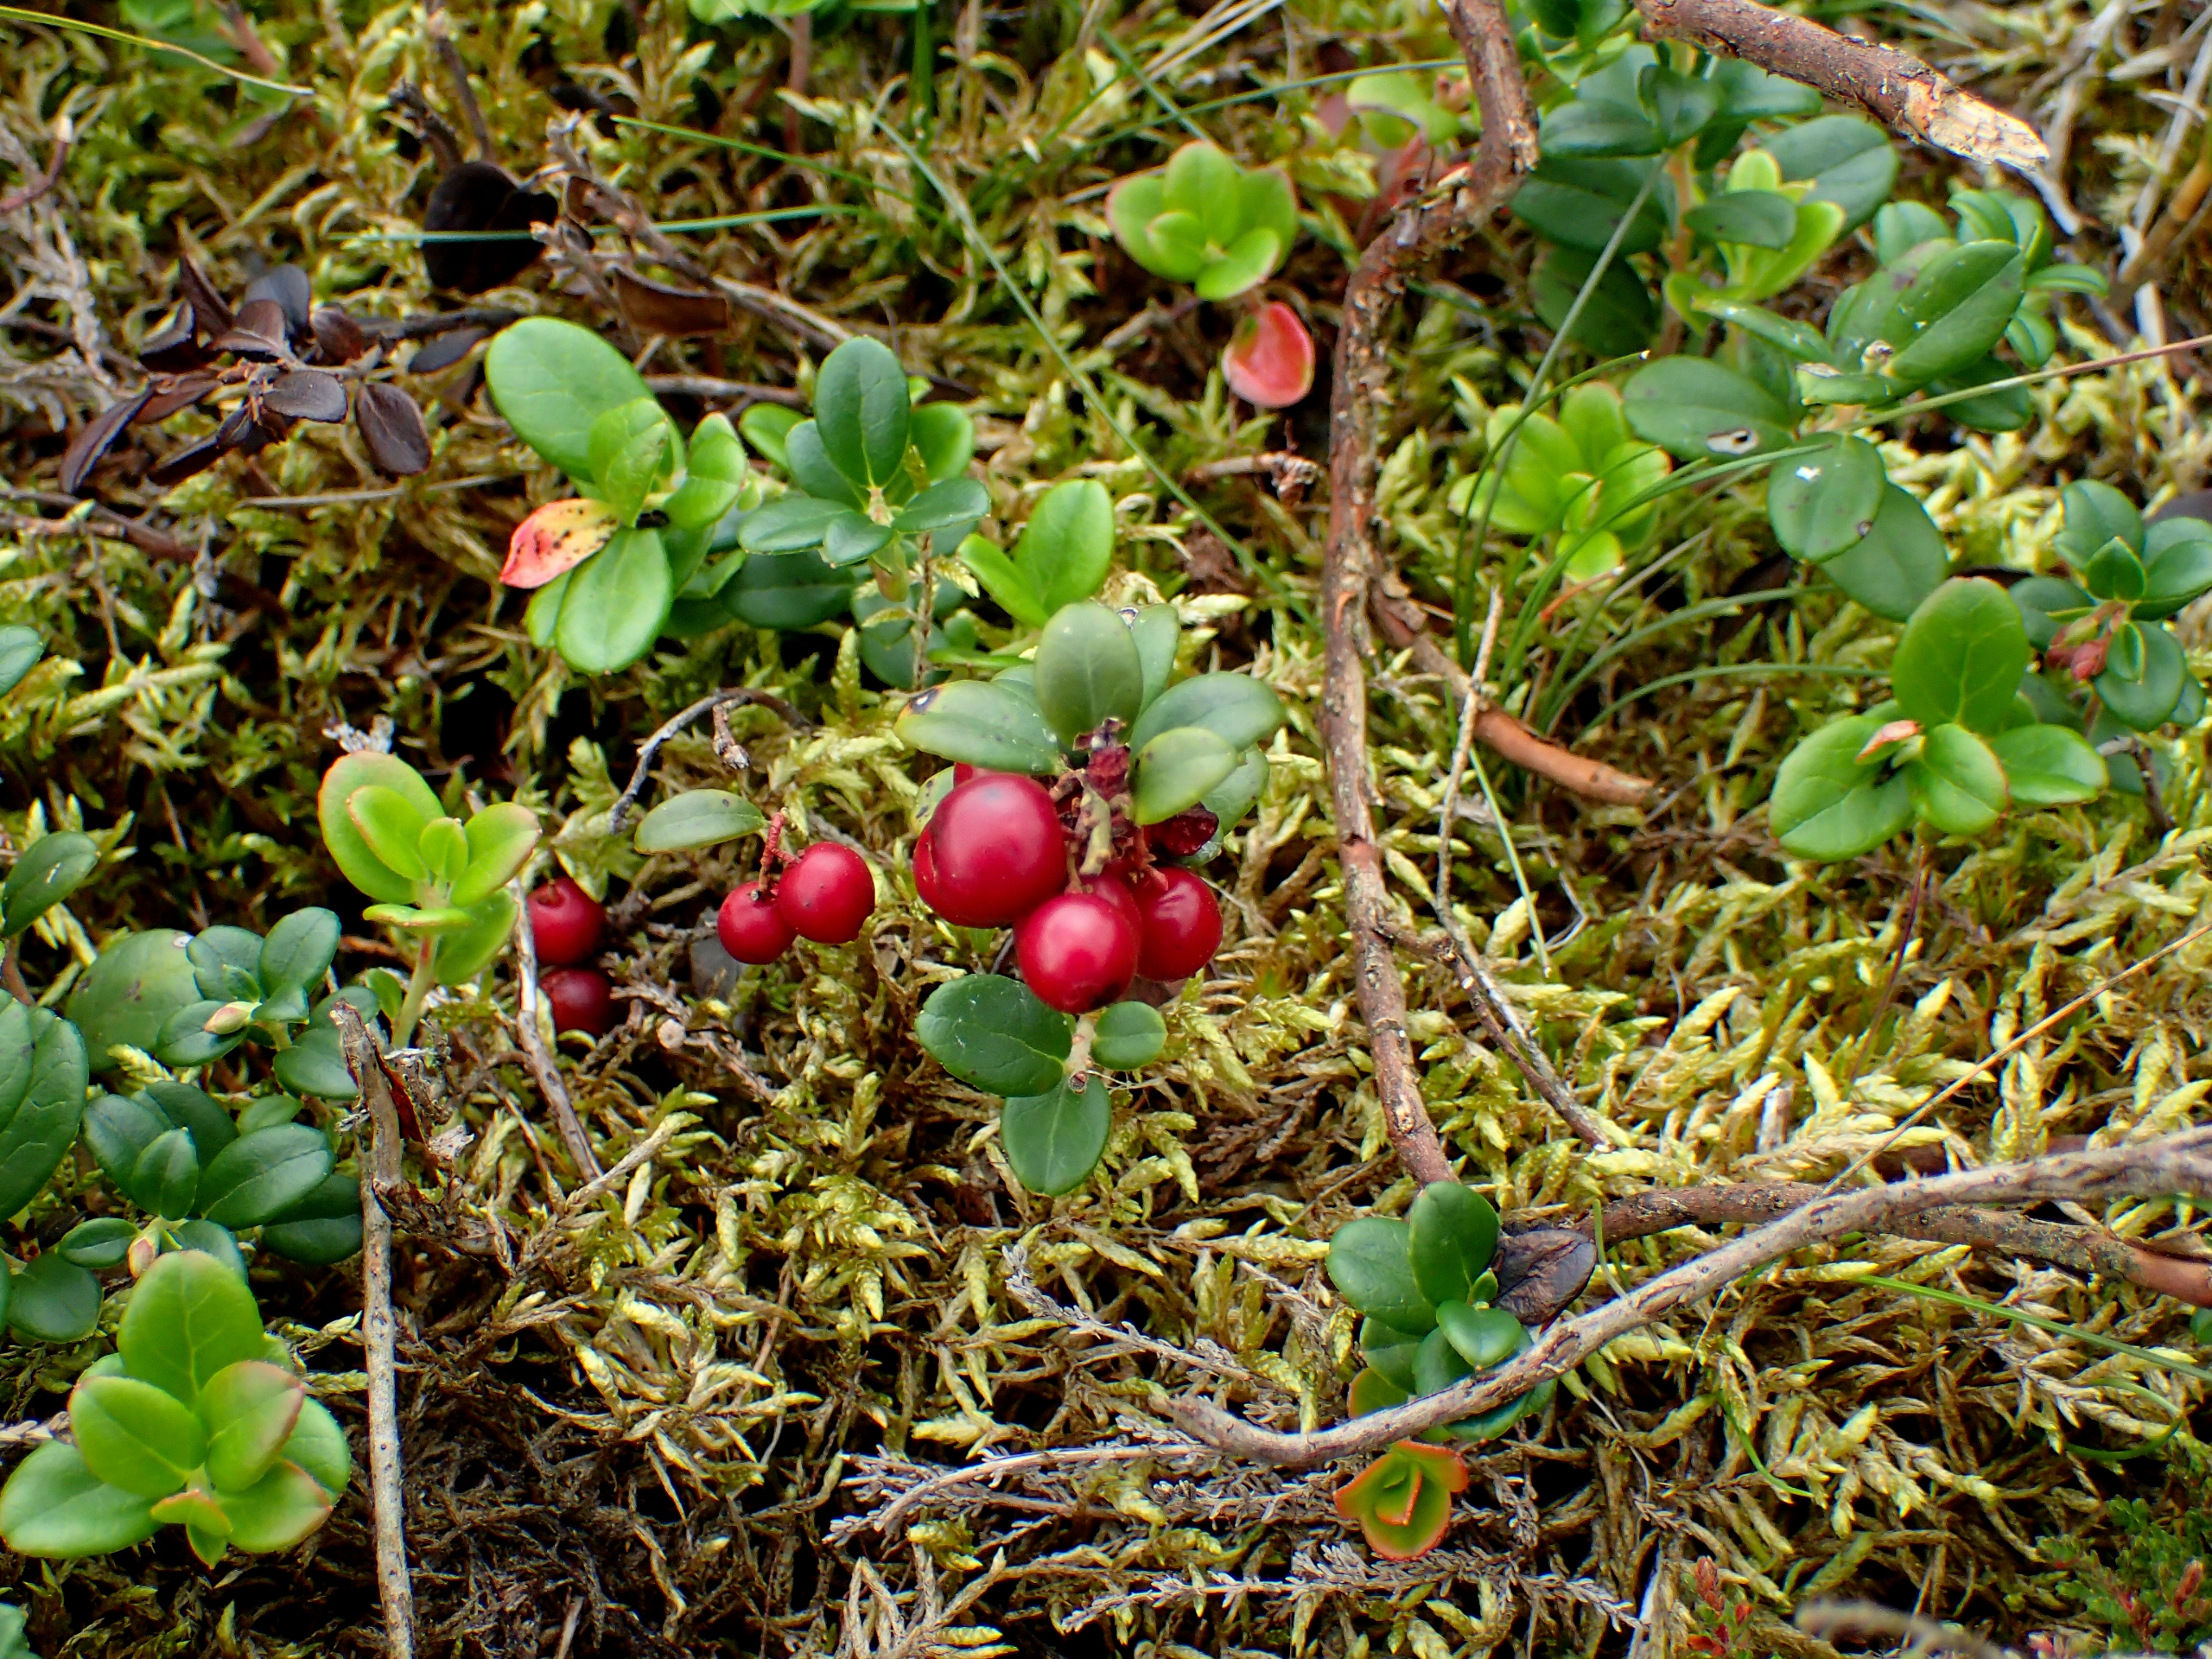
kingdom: Plantae
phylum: Tracheophyta
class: Magnoliopsida
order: Ericales
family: Ericaceae
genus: Vaccinium
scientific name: Vaccinium vitis-idaea
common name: Tyttebær
